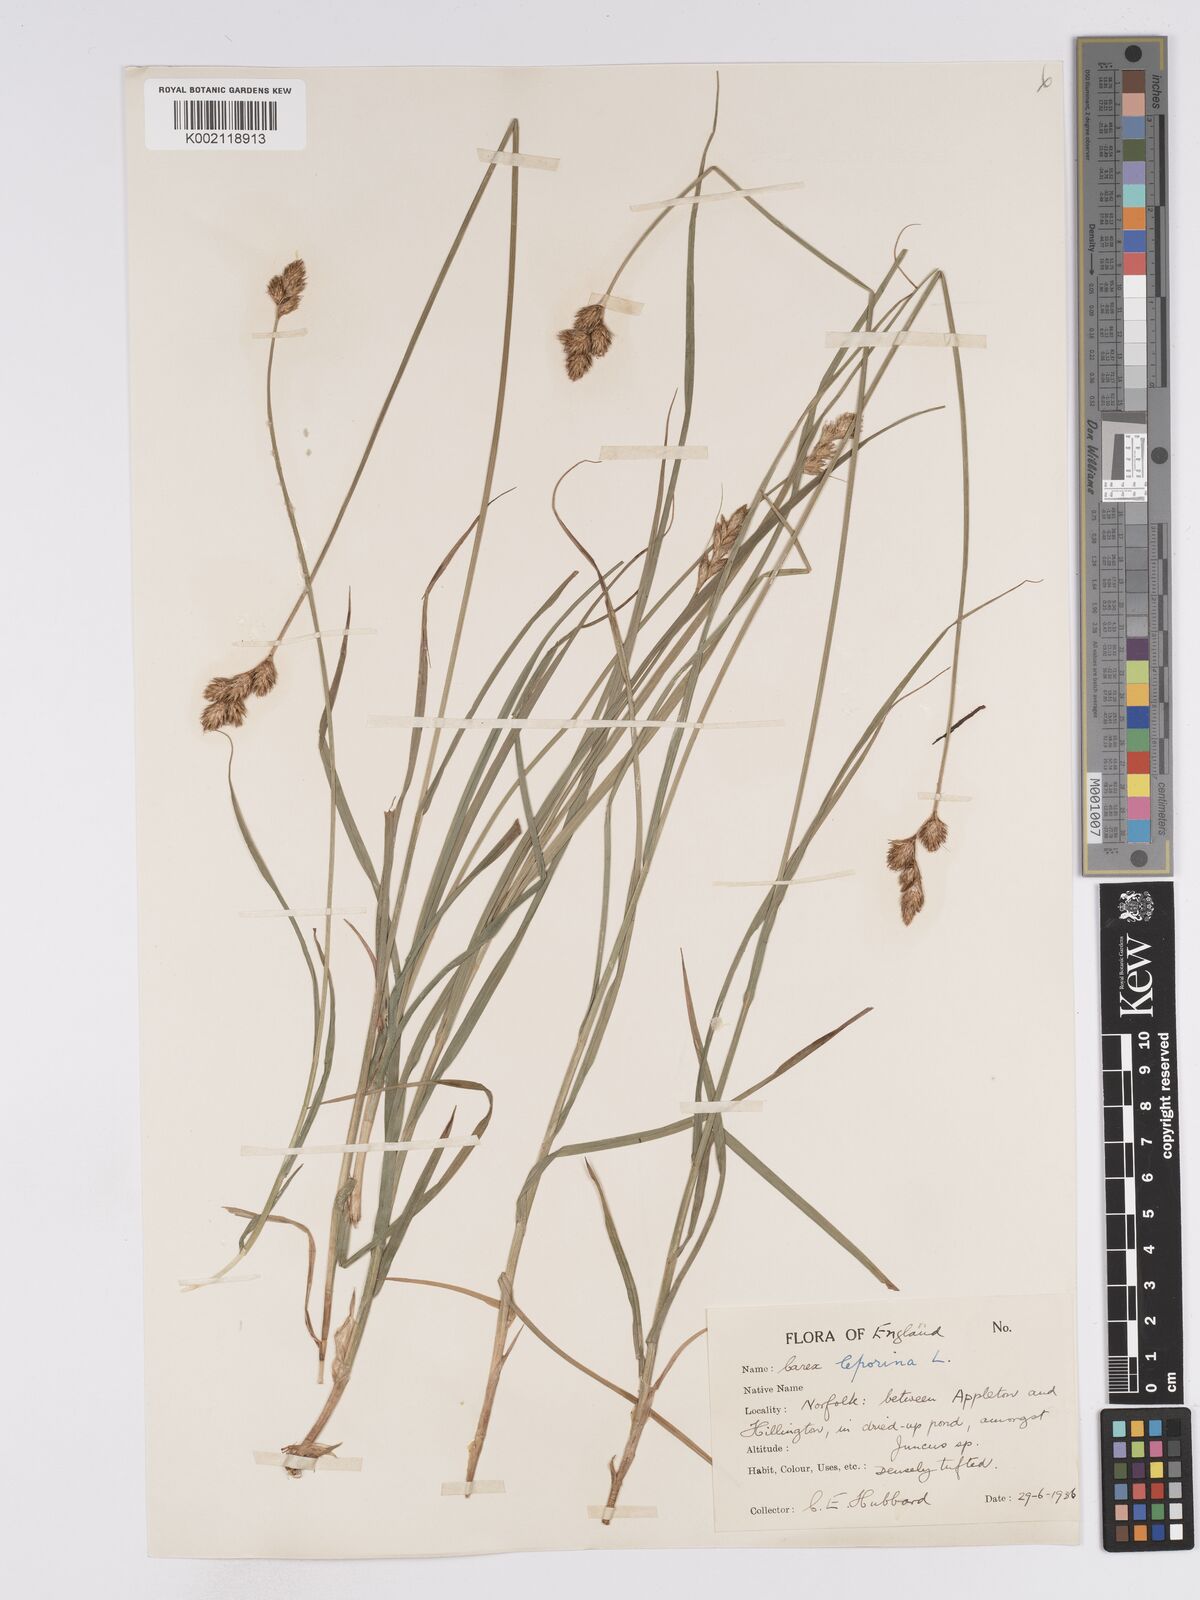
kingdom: Plantae
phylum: Tracheophyta
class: Liliopsida
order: Poales
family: Cyperaceae
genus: Carex
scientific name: Carex leporina
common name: Oval sedge
